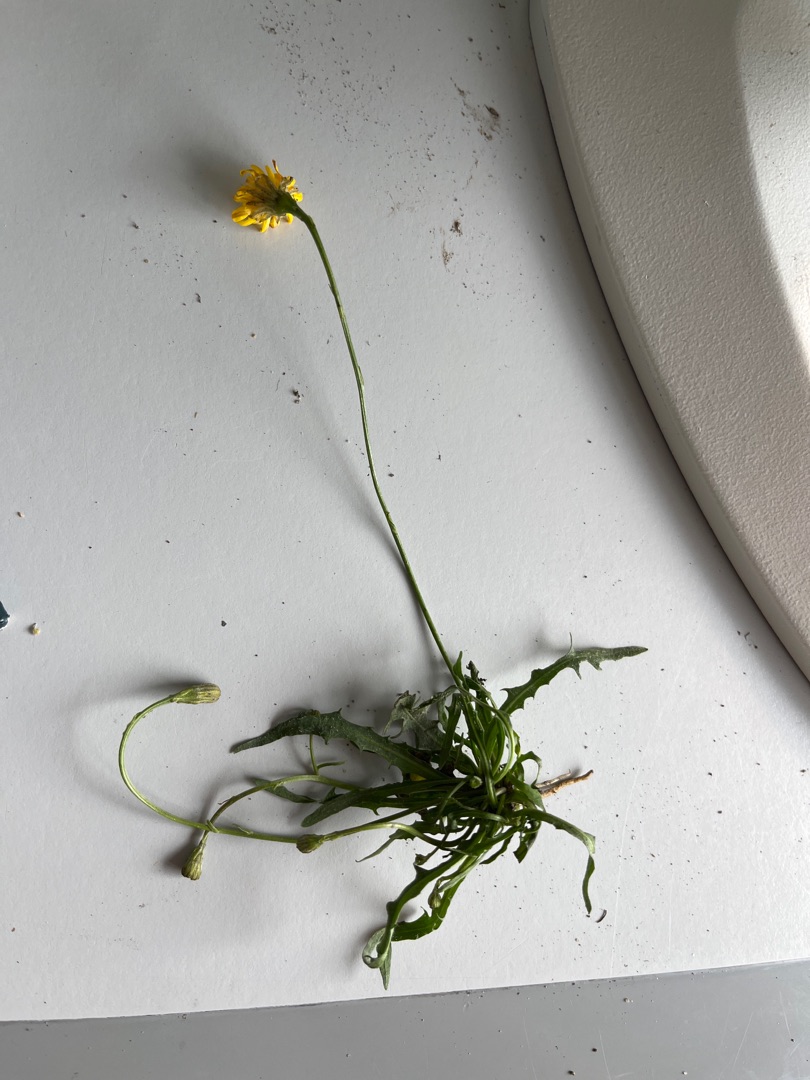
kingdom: Plantae
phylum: Tracheophyta
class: Magnoliopsida
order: Asterales
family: Asteraceae
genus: Scorzoneroides
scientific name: Scorzoneroides autumnalis
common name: Høst-borst
